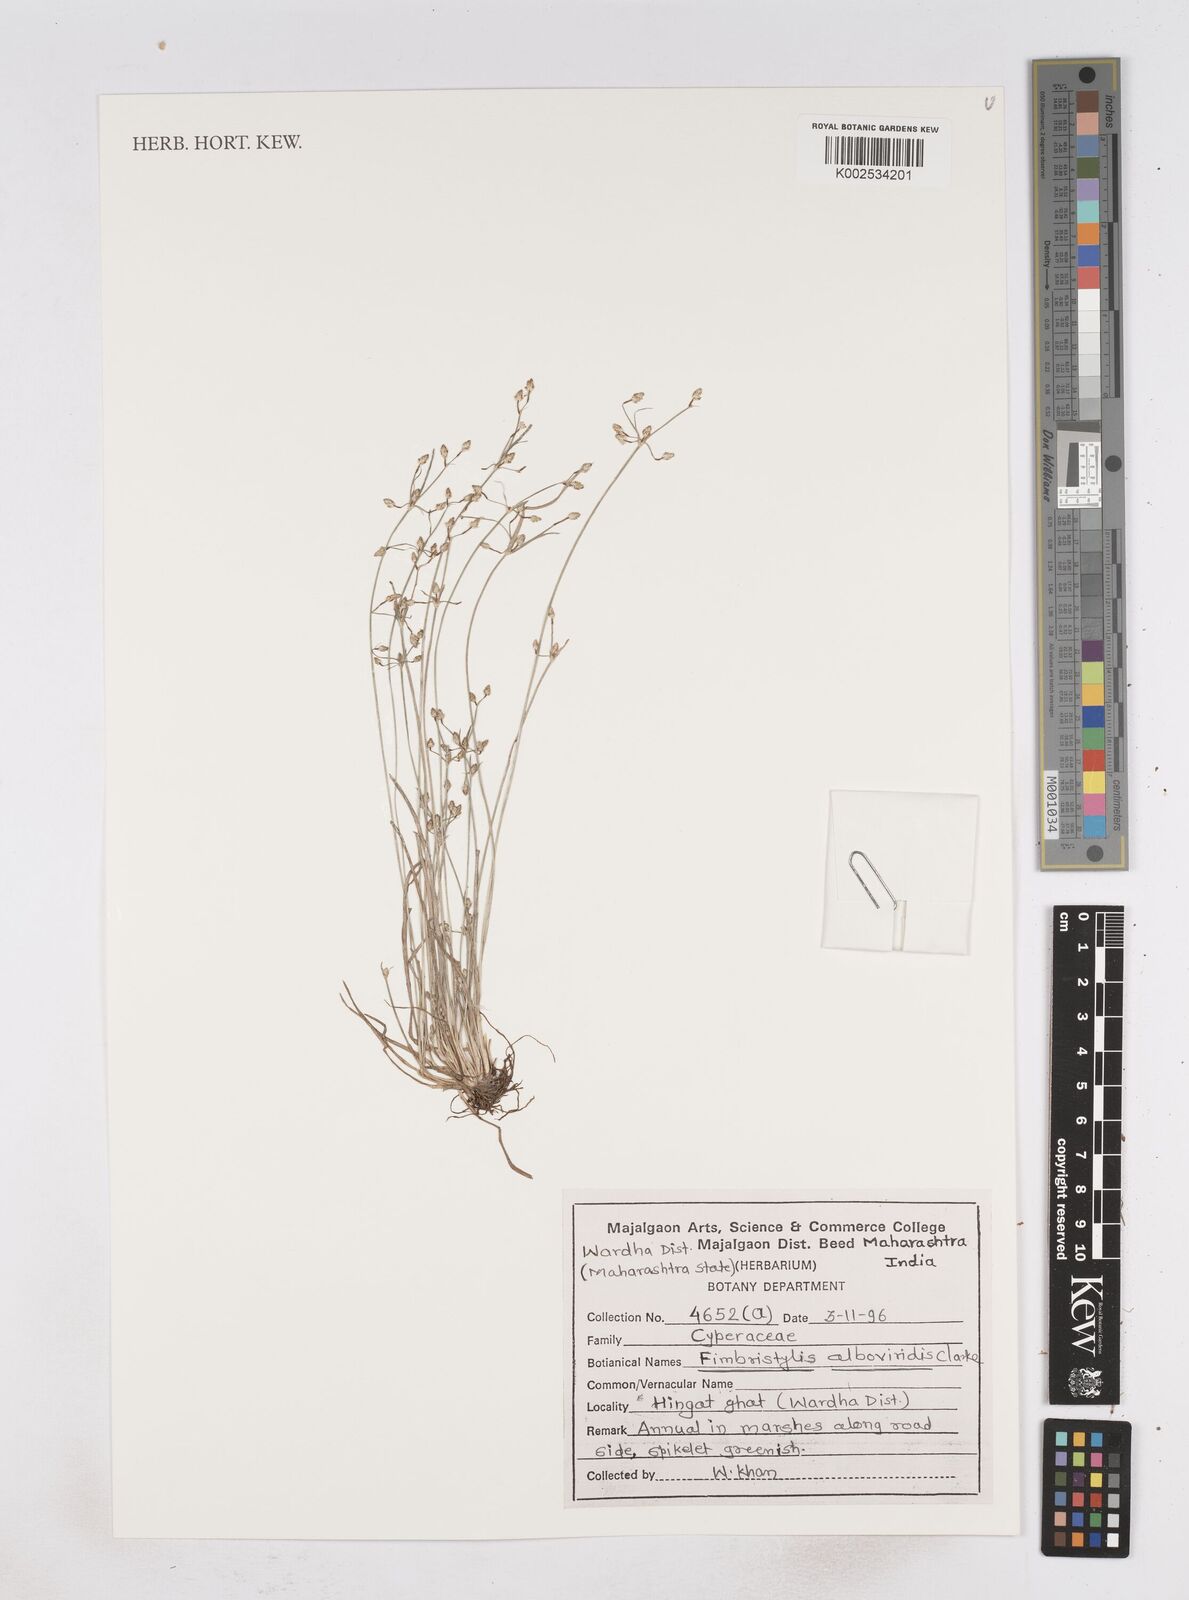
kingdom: Plantae
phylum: Tracheophyta
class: Liliopsida
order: Poales
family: Cyperaceae
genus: Fimbristylis
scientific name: Fimbristylis alboviridis
